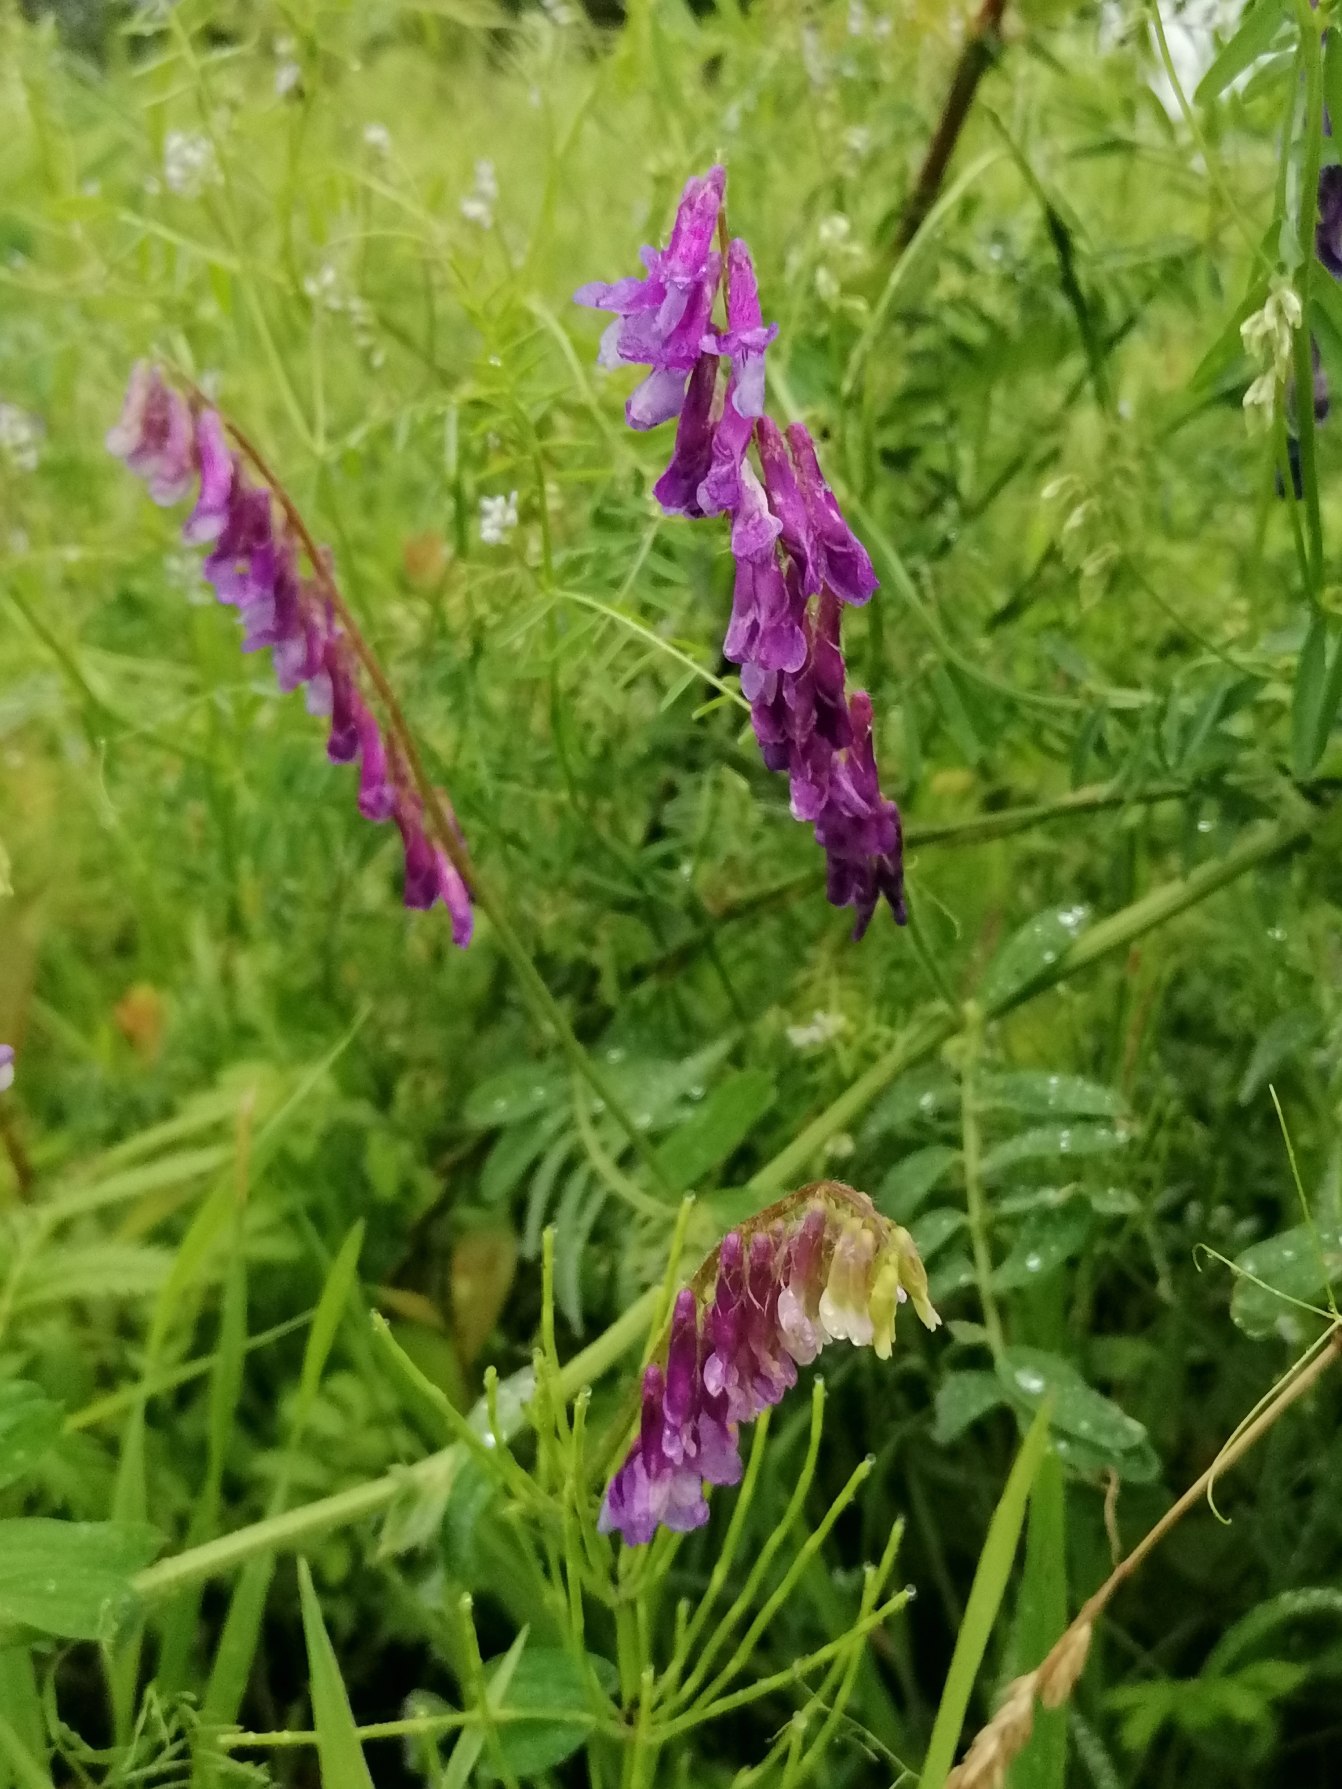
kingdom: Plantae
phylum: Tracheophyta
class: Magnoliopsida
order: Fabales
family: Fabaceae
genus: Vicia
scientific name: Vicia villosa
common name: Sand-vikke
